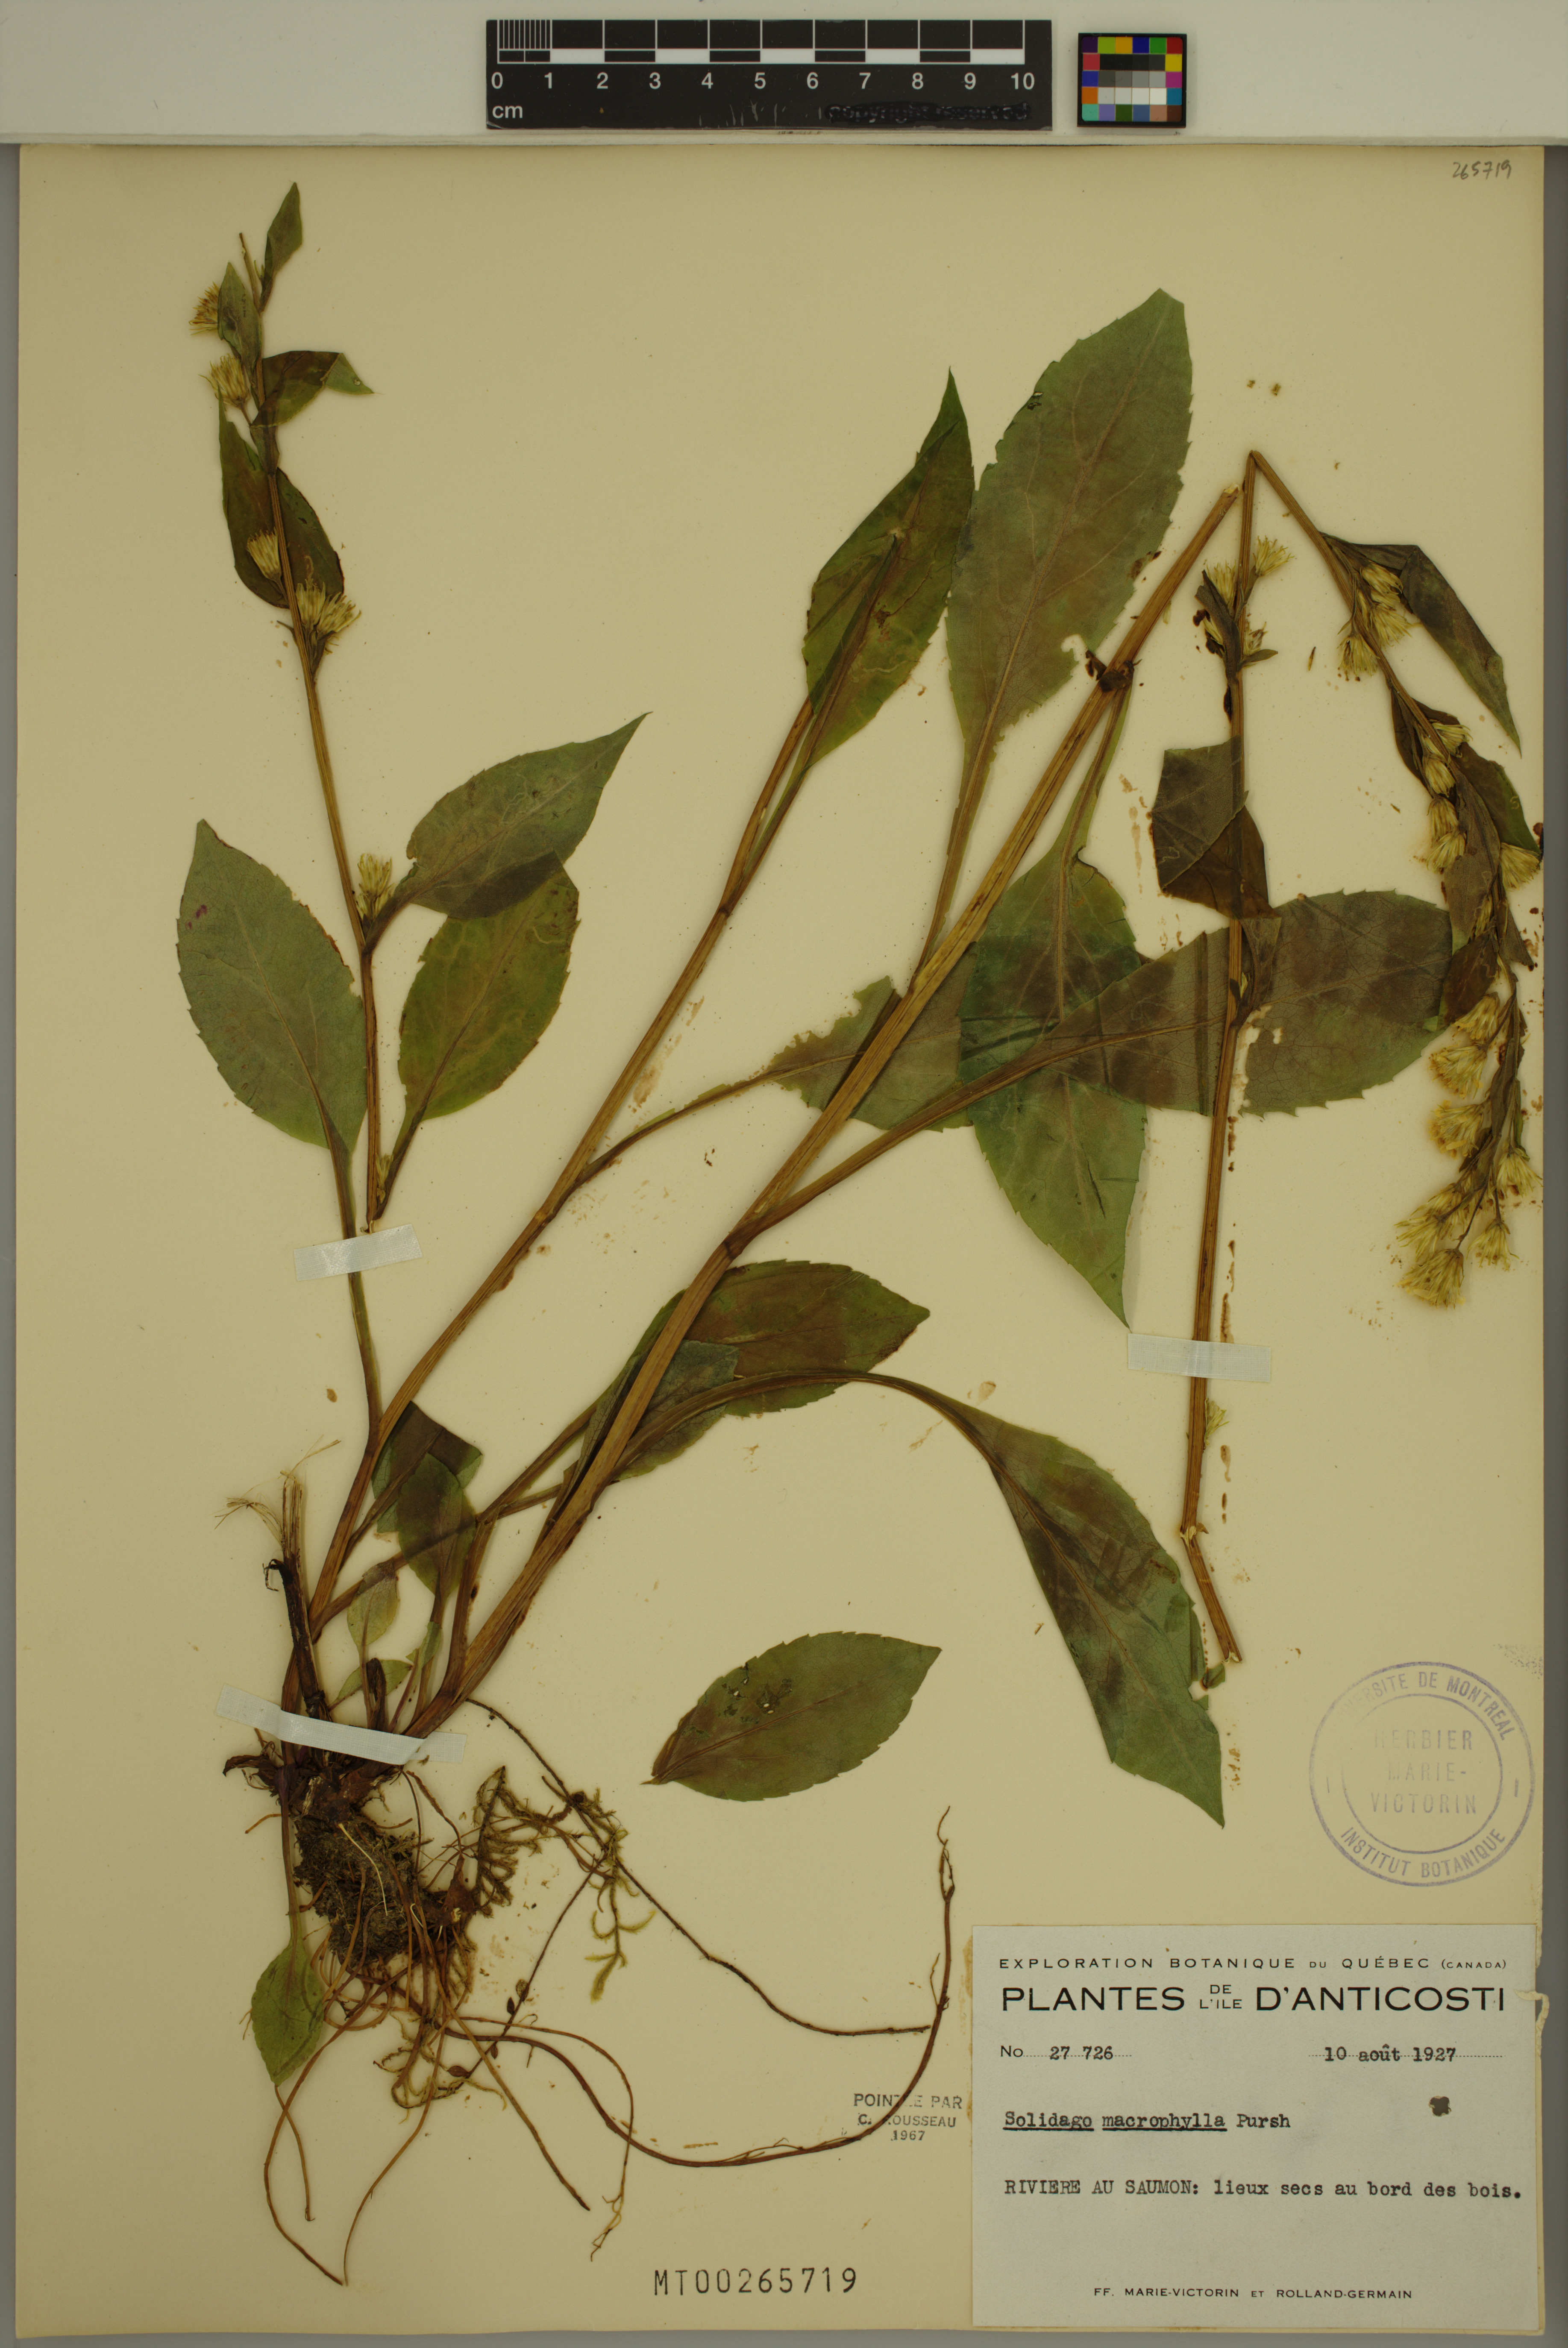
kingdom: Plantae
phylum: Tracheophyta
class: Magnoliopsida
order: Asterales
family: Asteraceae
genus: Solidago
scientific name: Solidago macrophylla
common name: Large-leaved goldenrod
